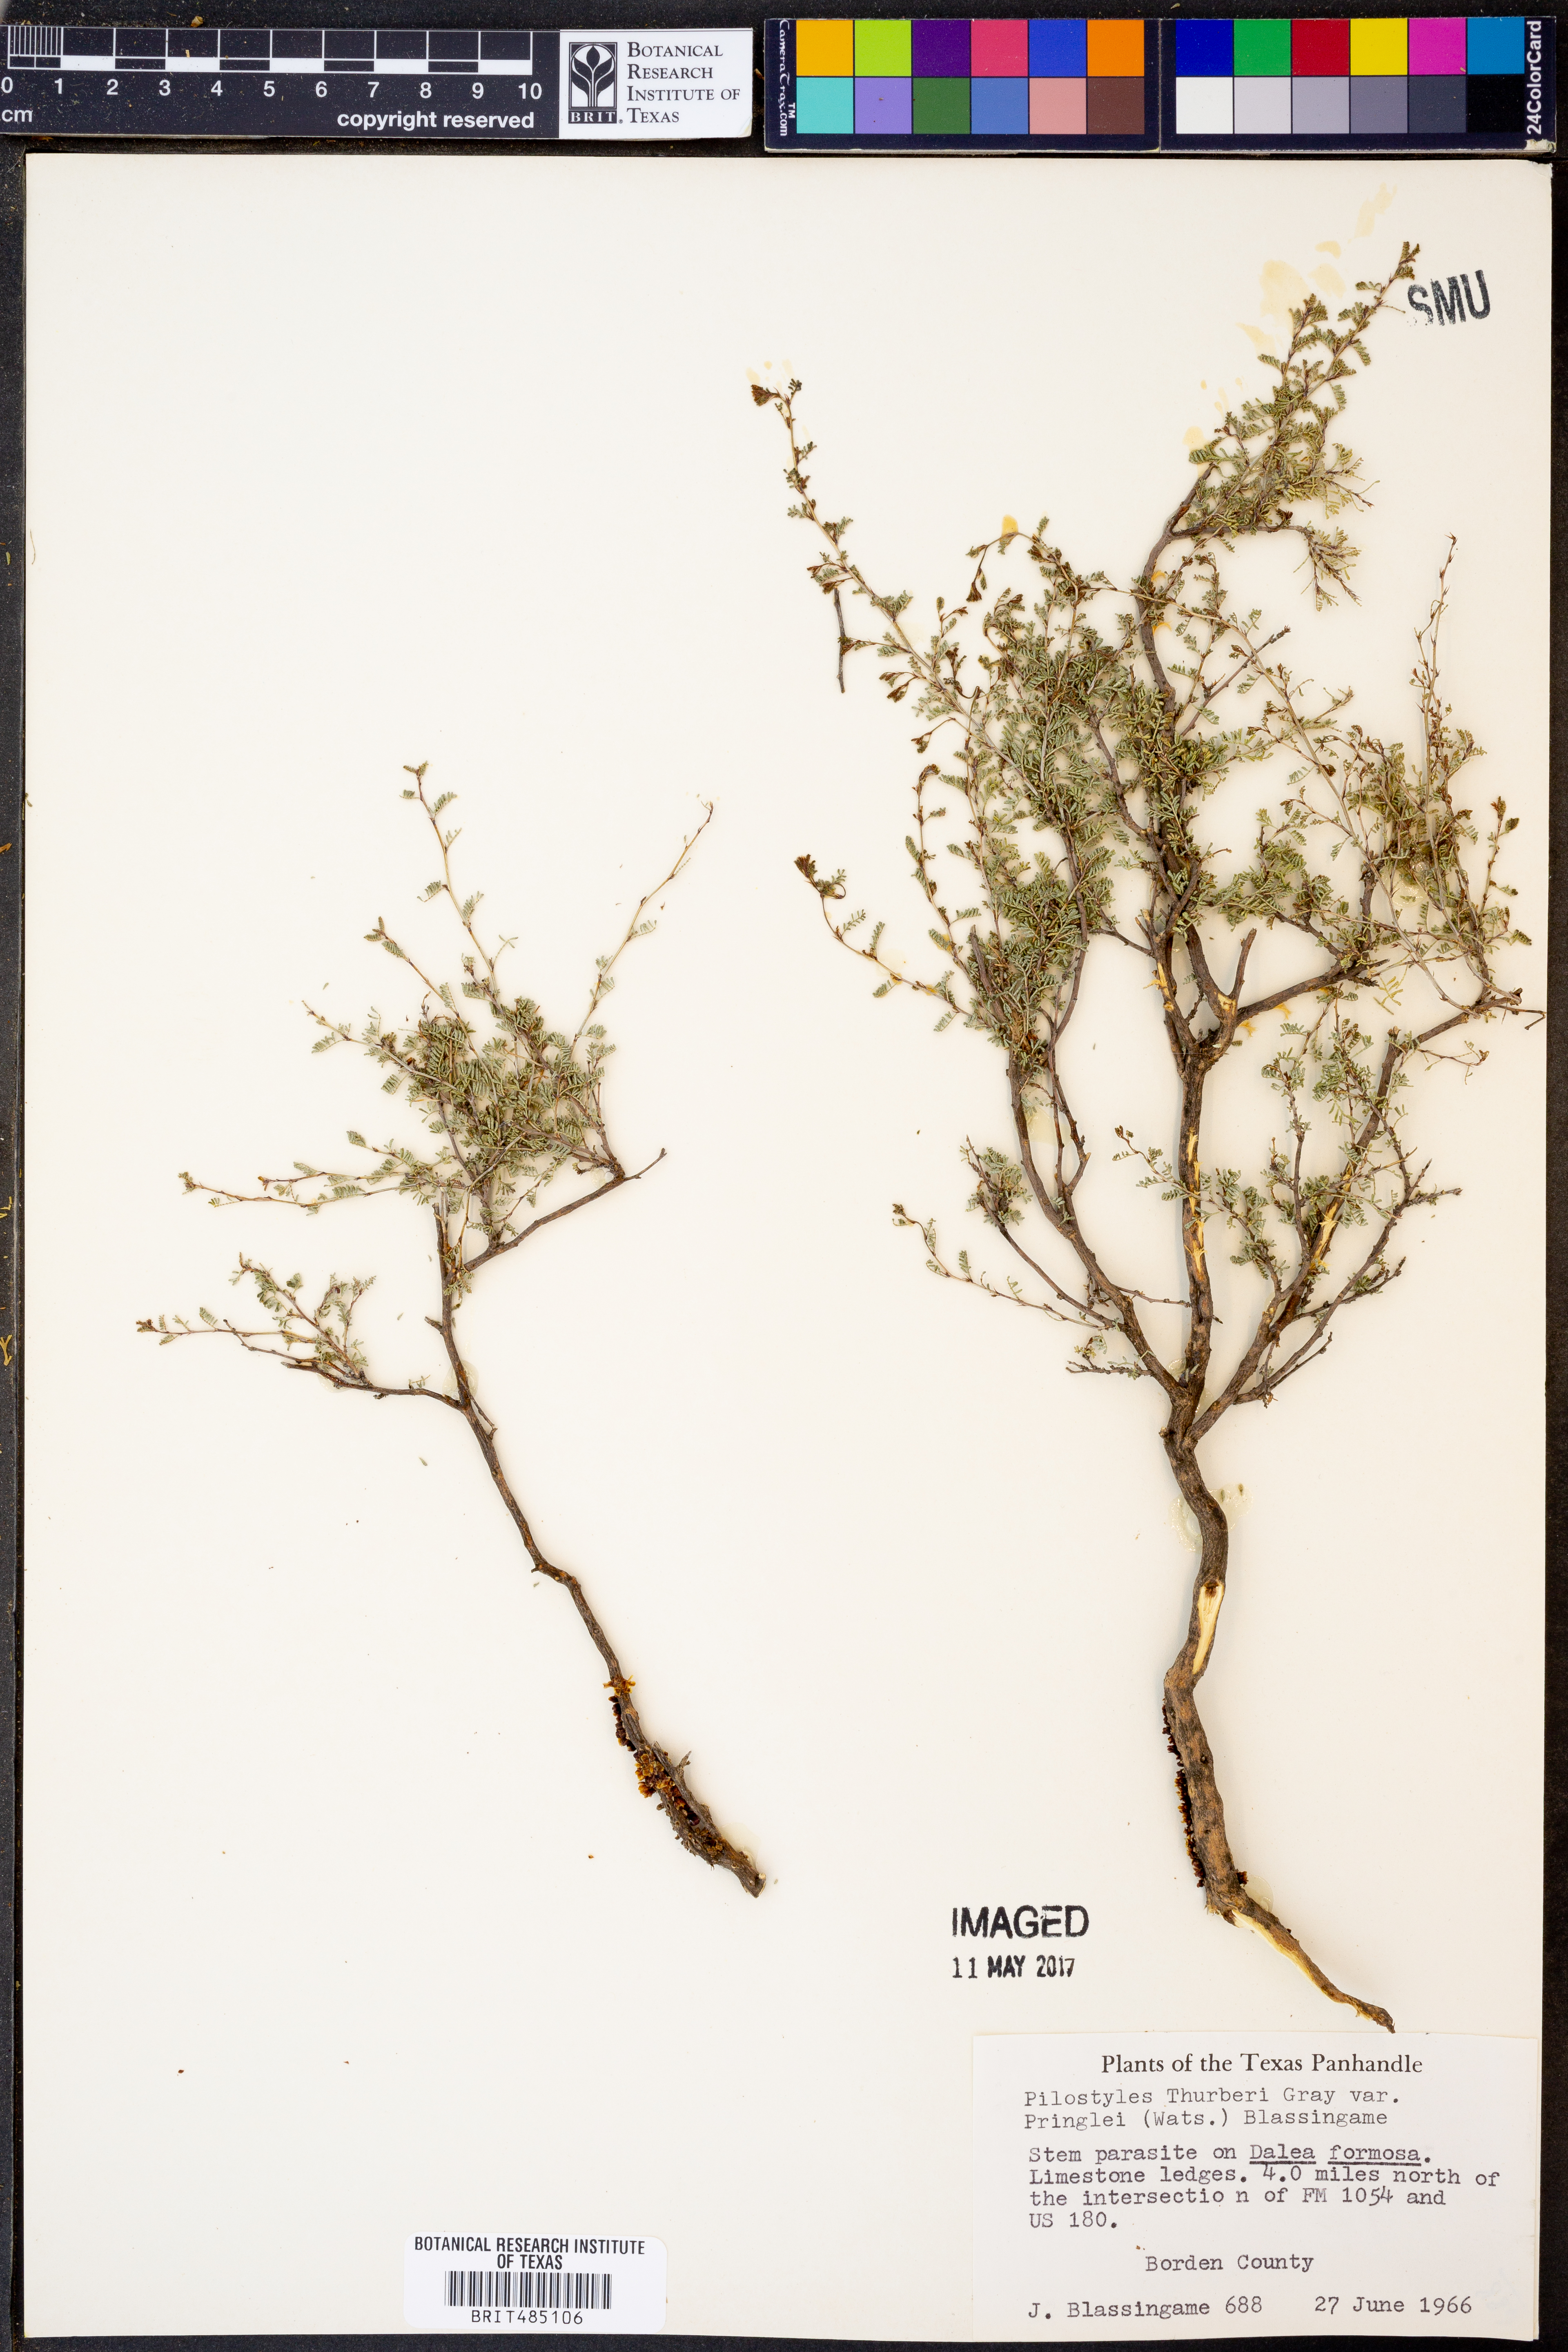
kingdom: Plantae
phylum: Tracheophyta
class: Magnoliopsida
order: Cucurbitales
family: Apodanthaceae
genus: Pilostyles
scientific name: Pilostyles thurberi
